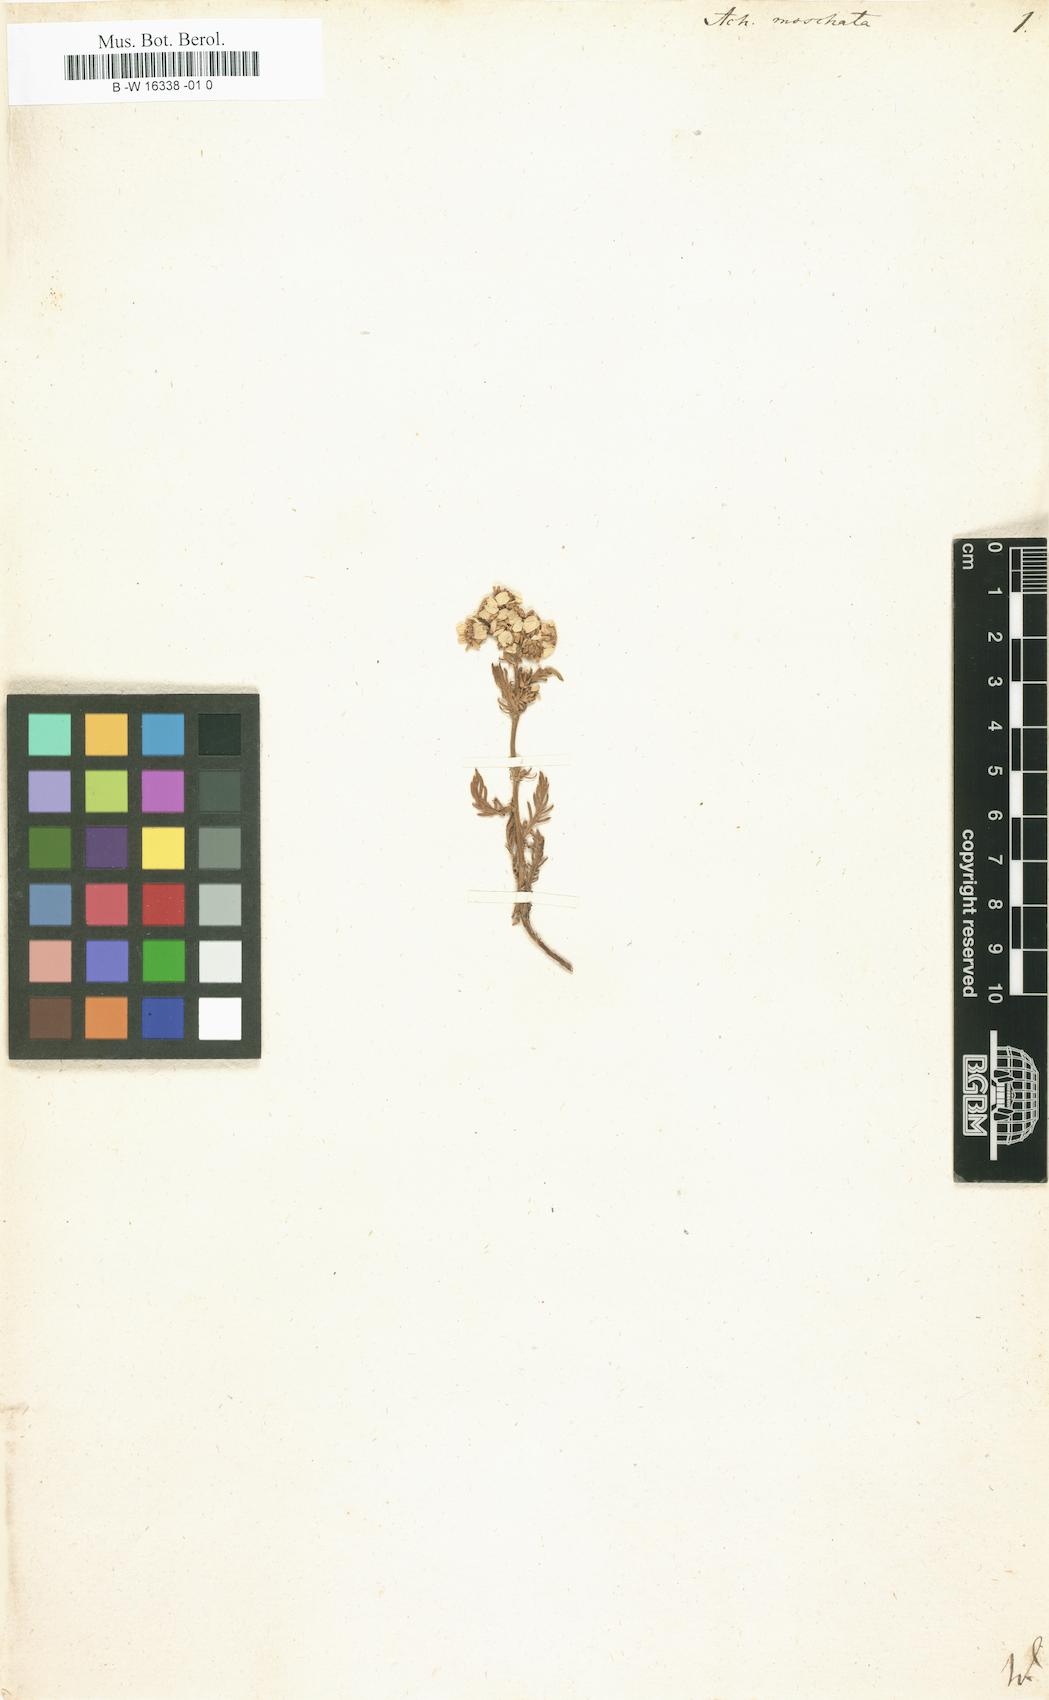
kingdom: Plantae
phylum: Tracheophyta
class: Magnoliopsida
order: Asterales
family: Asteraceae
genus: Achillea
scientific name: Achillea erba-rotta
